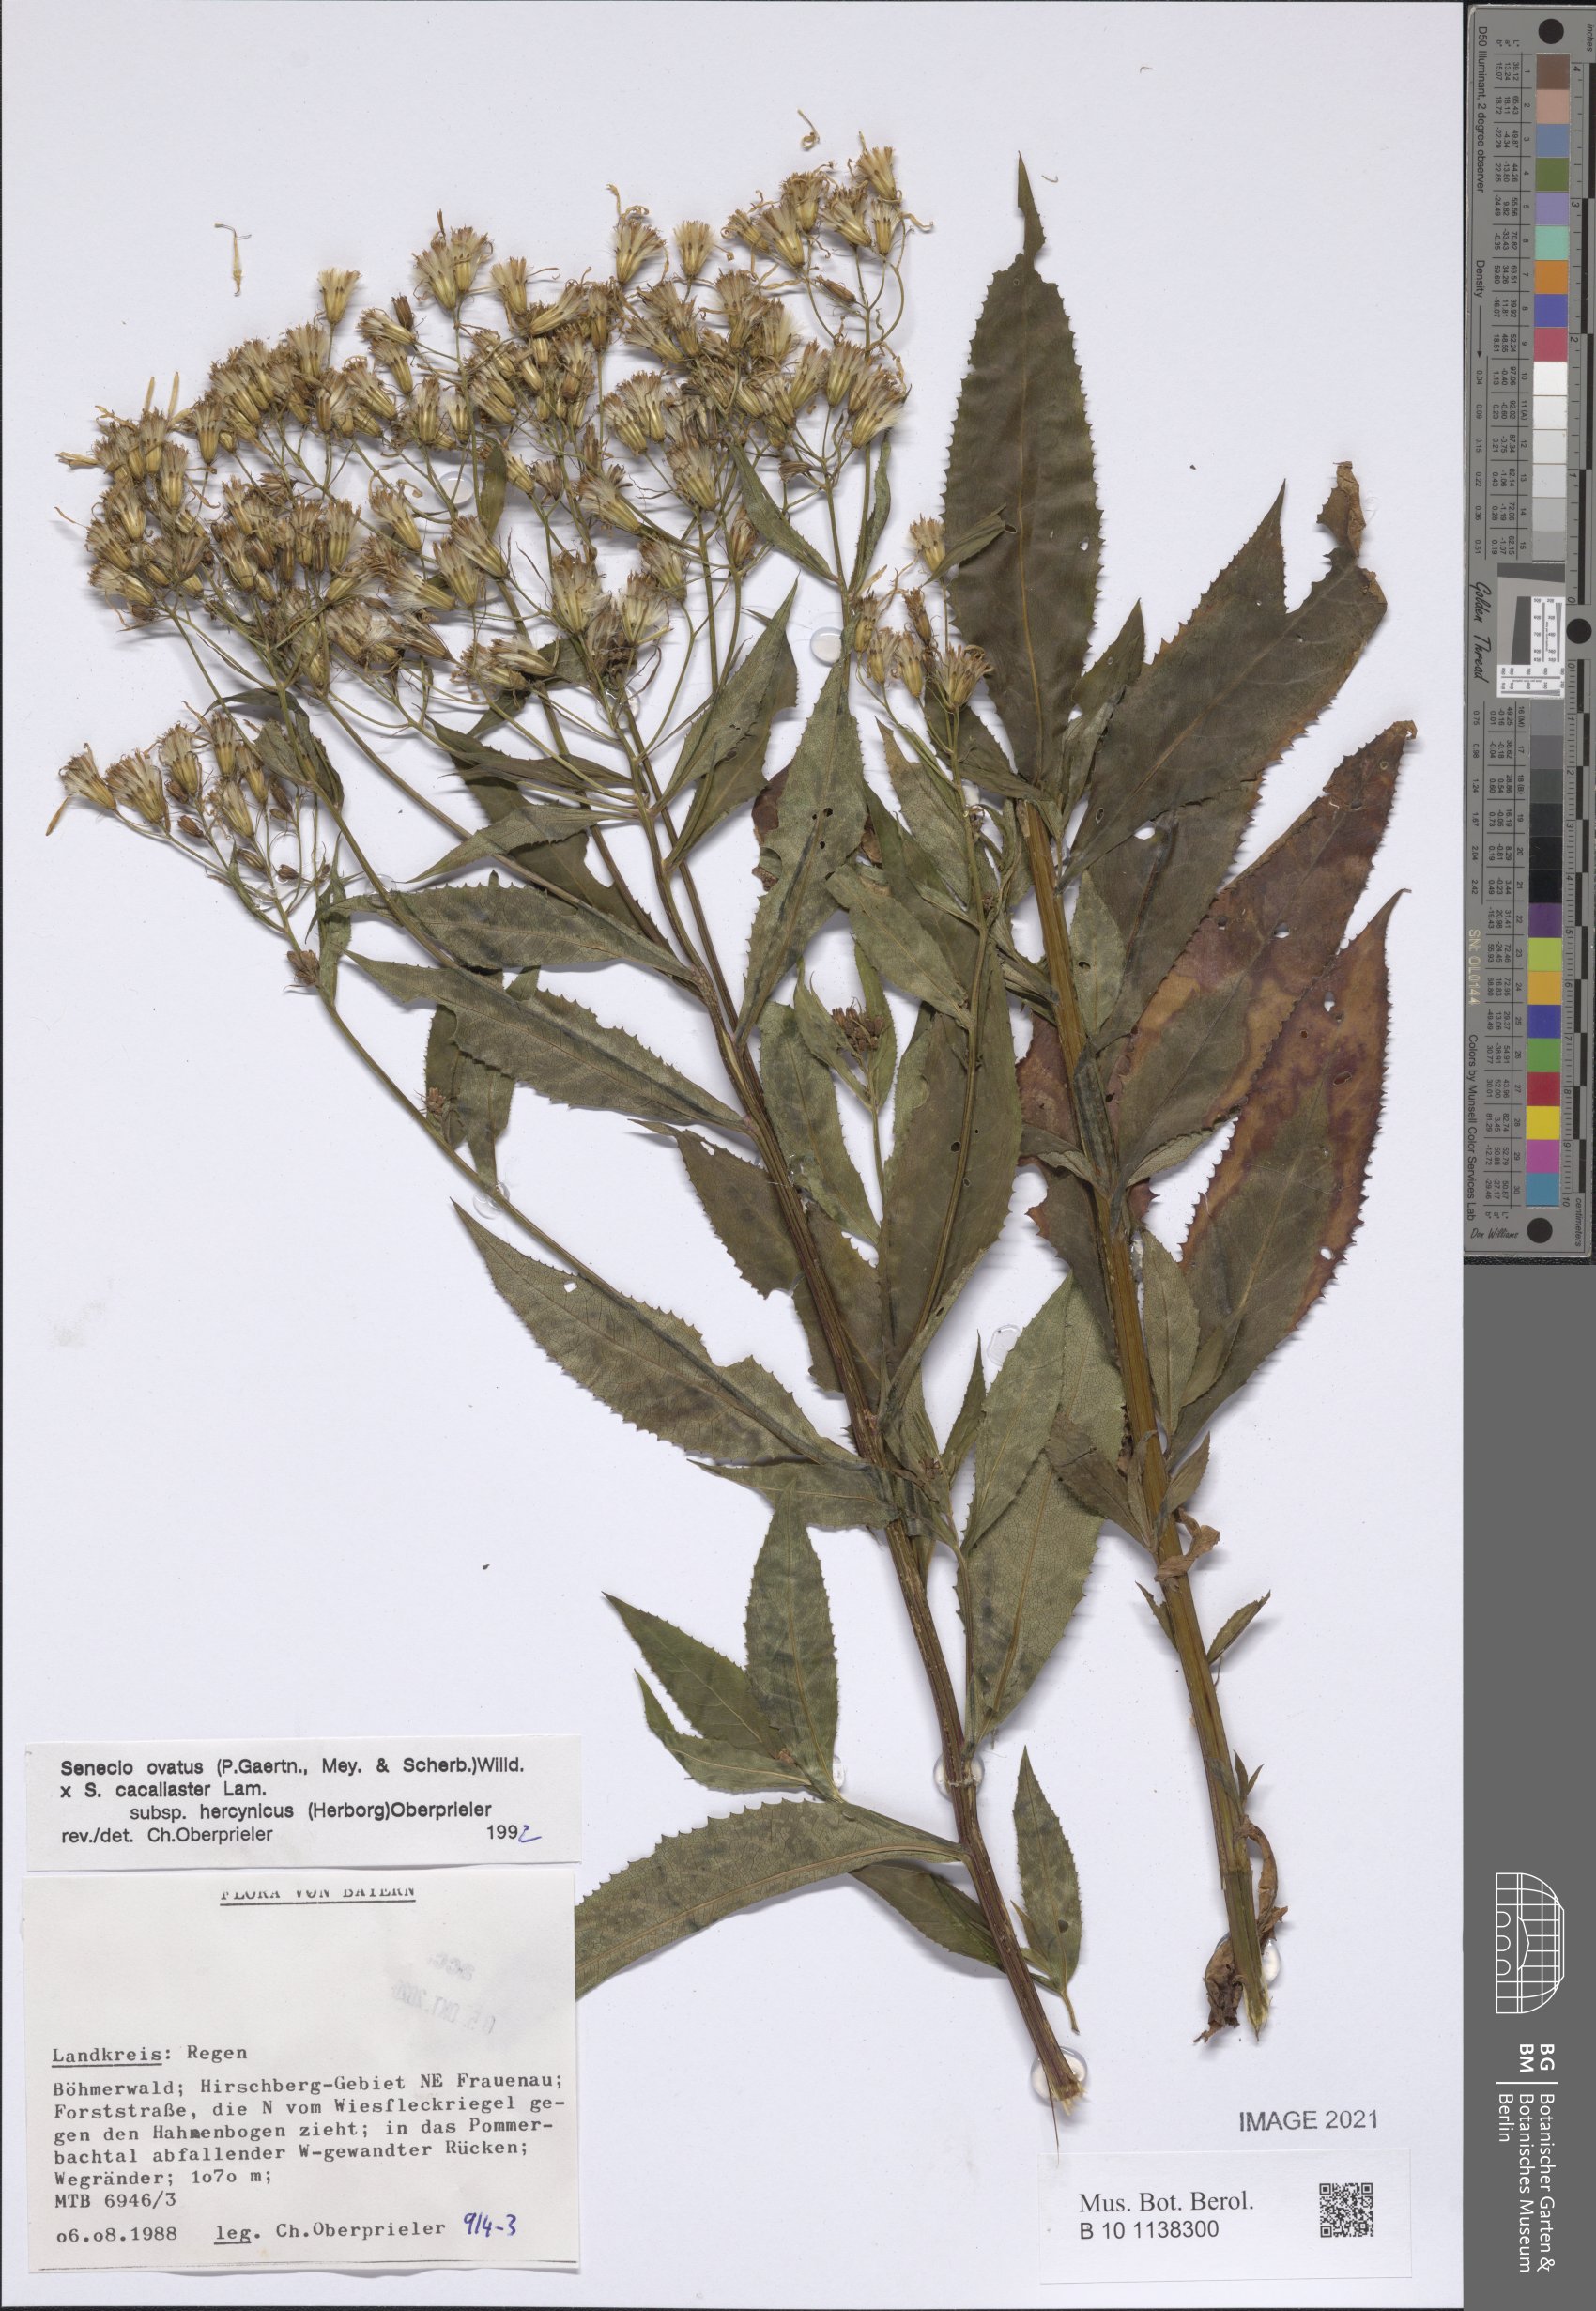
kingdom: Plantae
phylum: Tracheophyta
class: Magnoliopsida
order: Asterales
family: Asteraceae
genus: Senecio
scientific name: Senecio ovatus
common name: Wood ragwort
